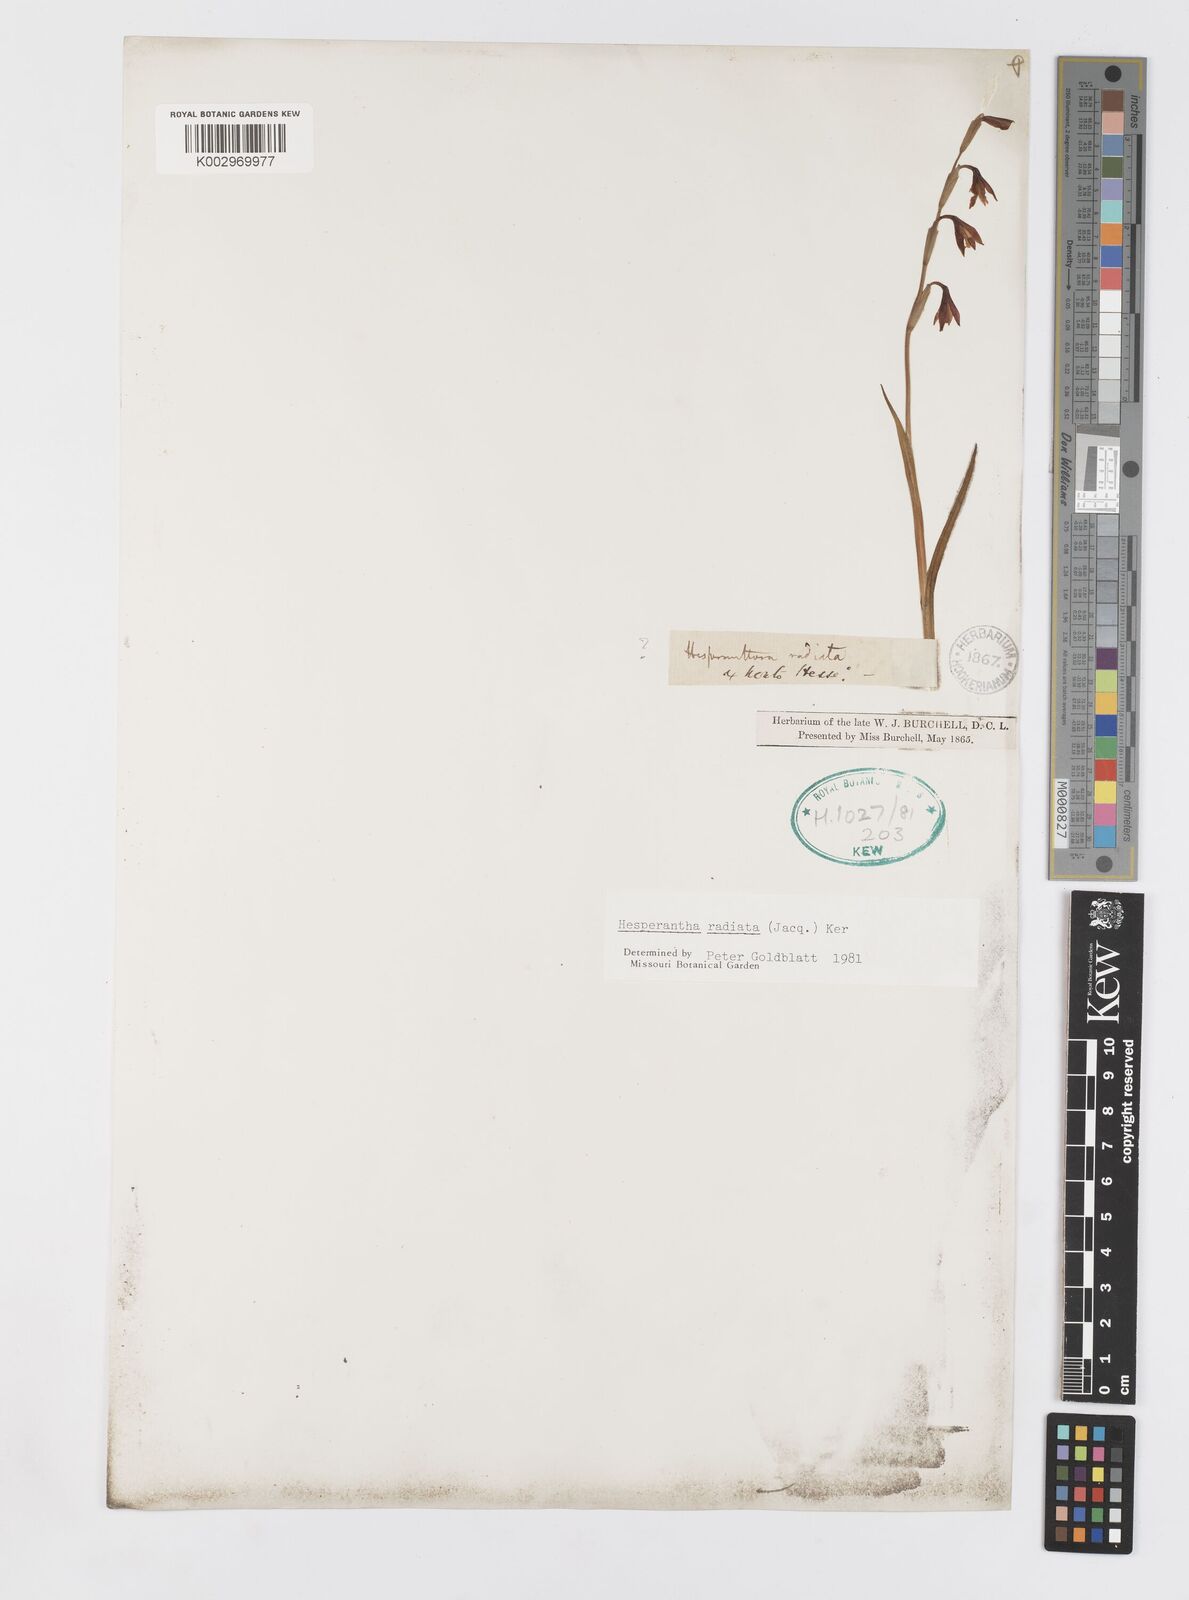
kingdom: Plantae
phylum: Tracheophyta
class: Liliopsida
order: Asparagales
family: Iridaceae
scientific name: Iridaceae
